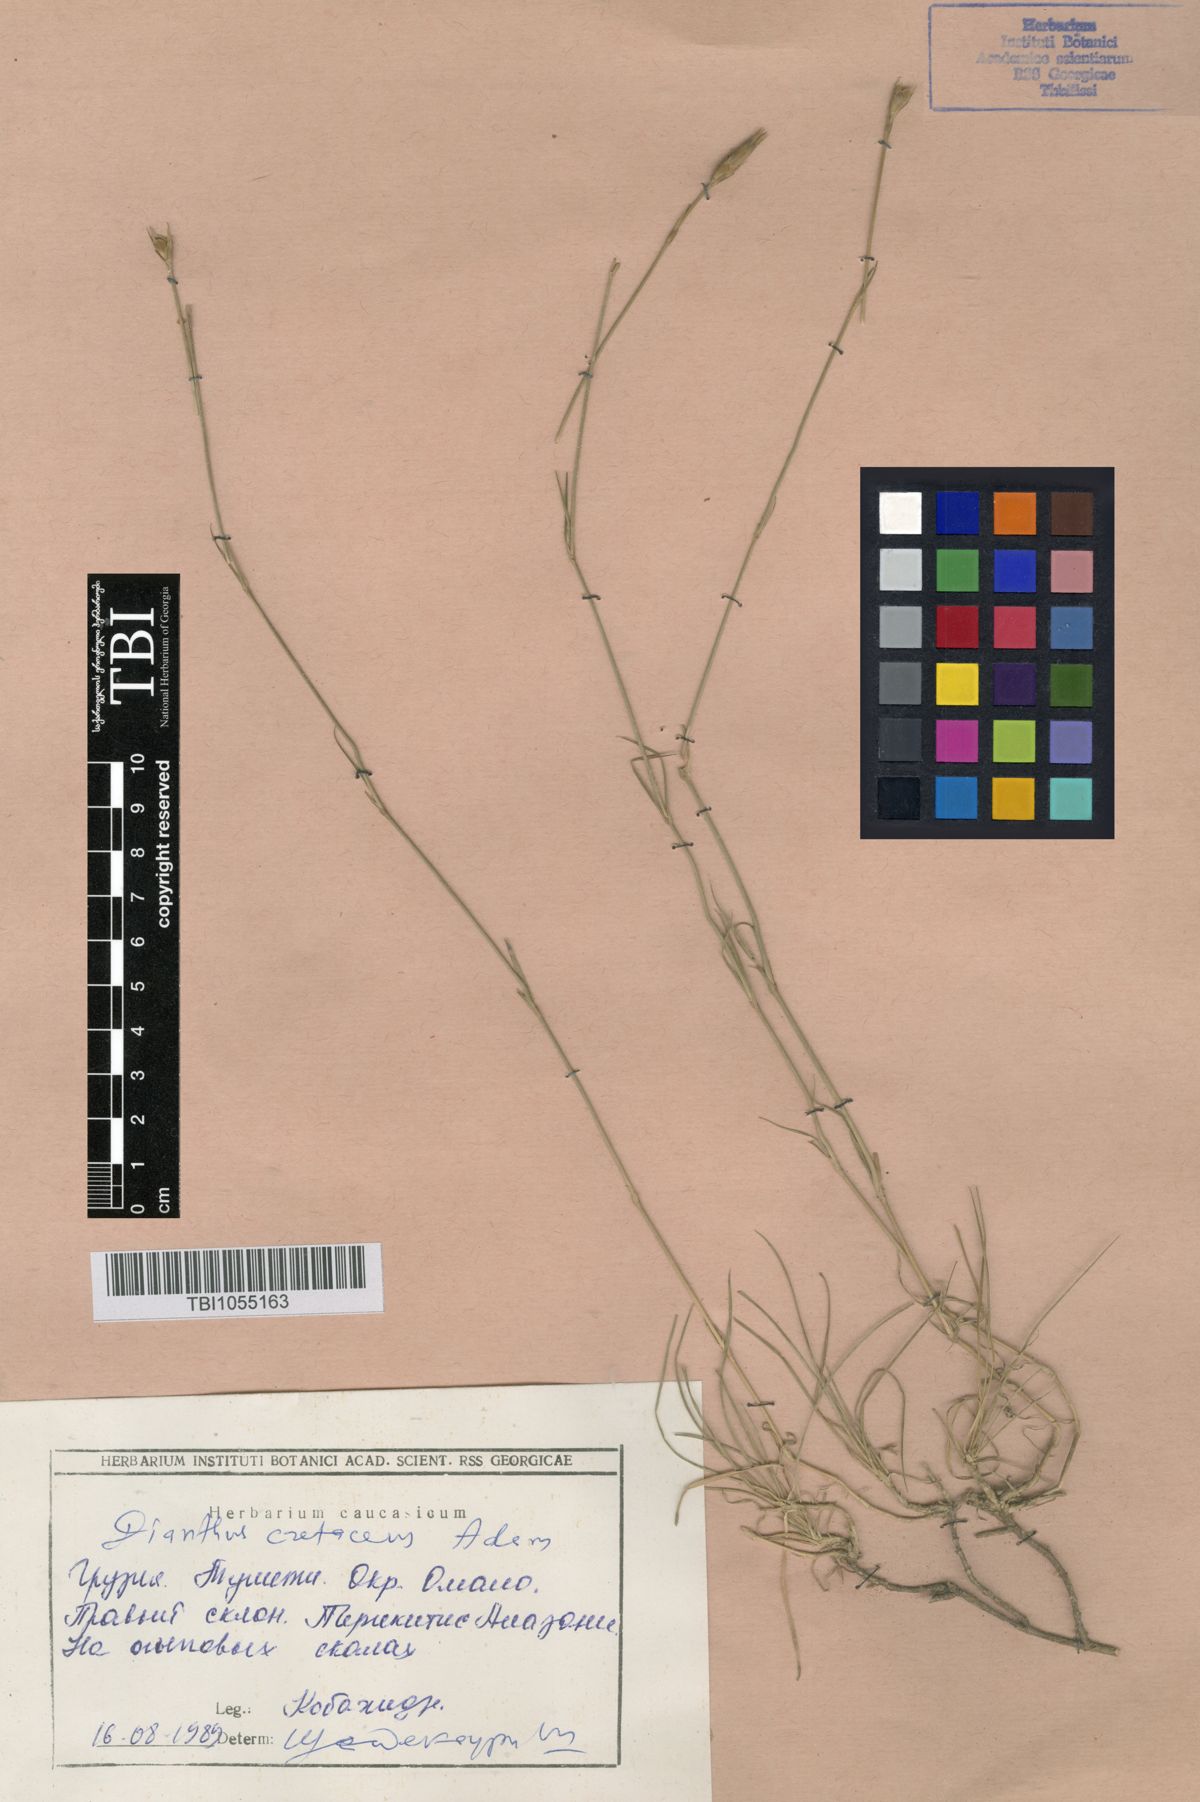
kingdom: Plantae
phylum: Tracheophyta
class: Magnoliopsida
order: Caryophyllales
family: Caryophyllaceae
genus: Dianthus
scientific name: Dianthus cretaceus
